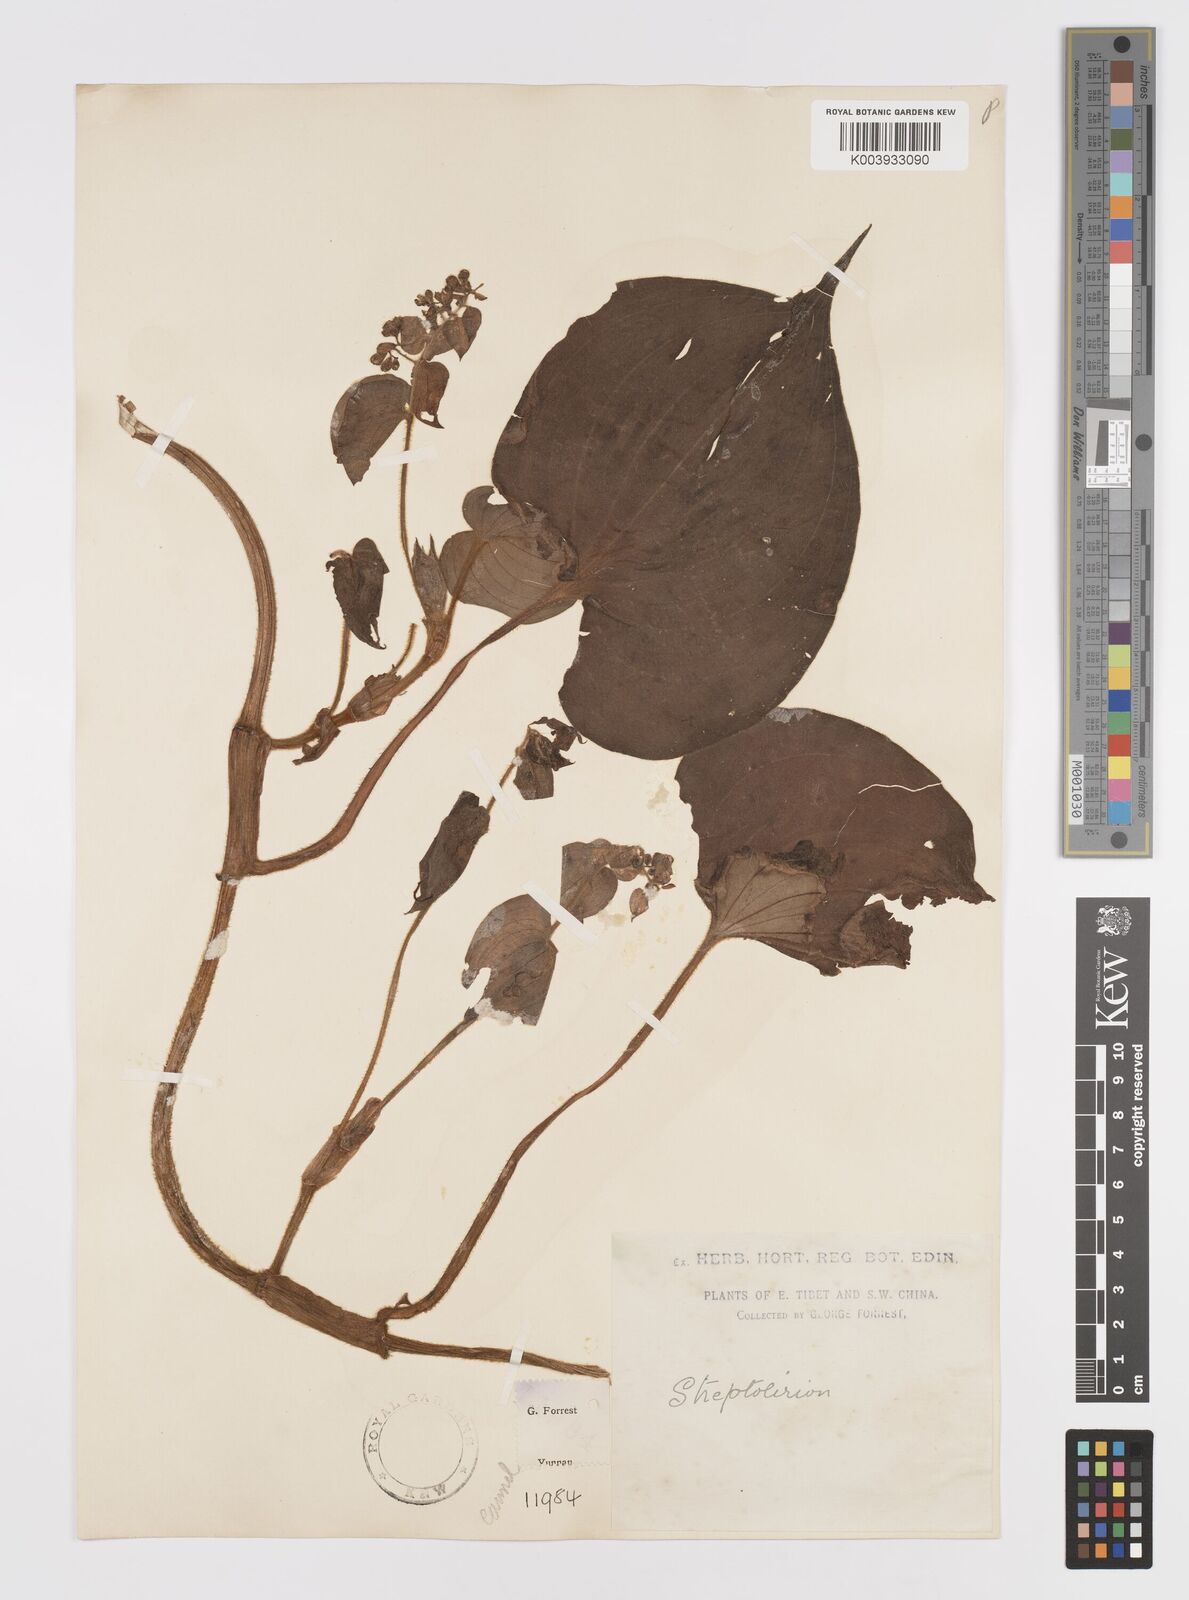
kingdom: Plantae
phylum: Tracheophyta
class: Liliopsida
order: Commelinales
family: Commelinaceae
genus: Streptolirion
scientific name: Streptolirion
